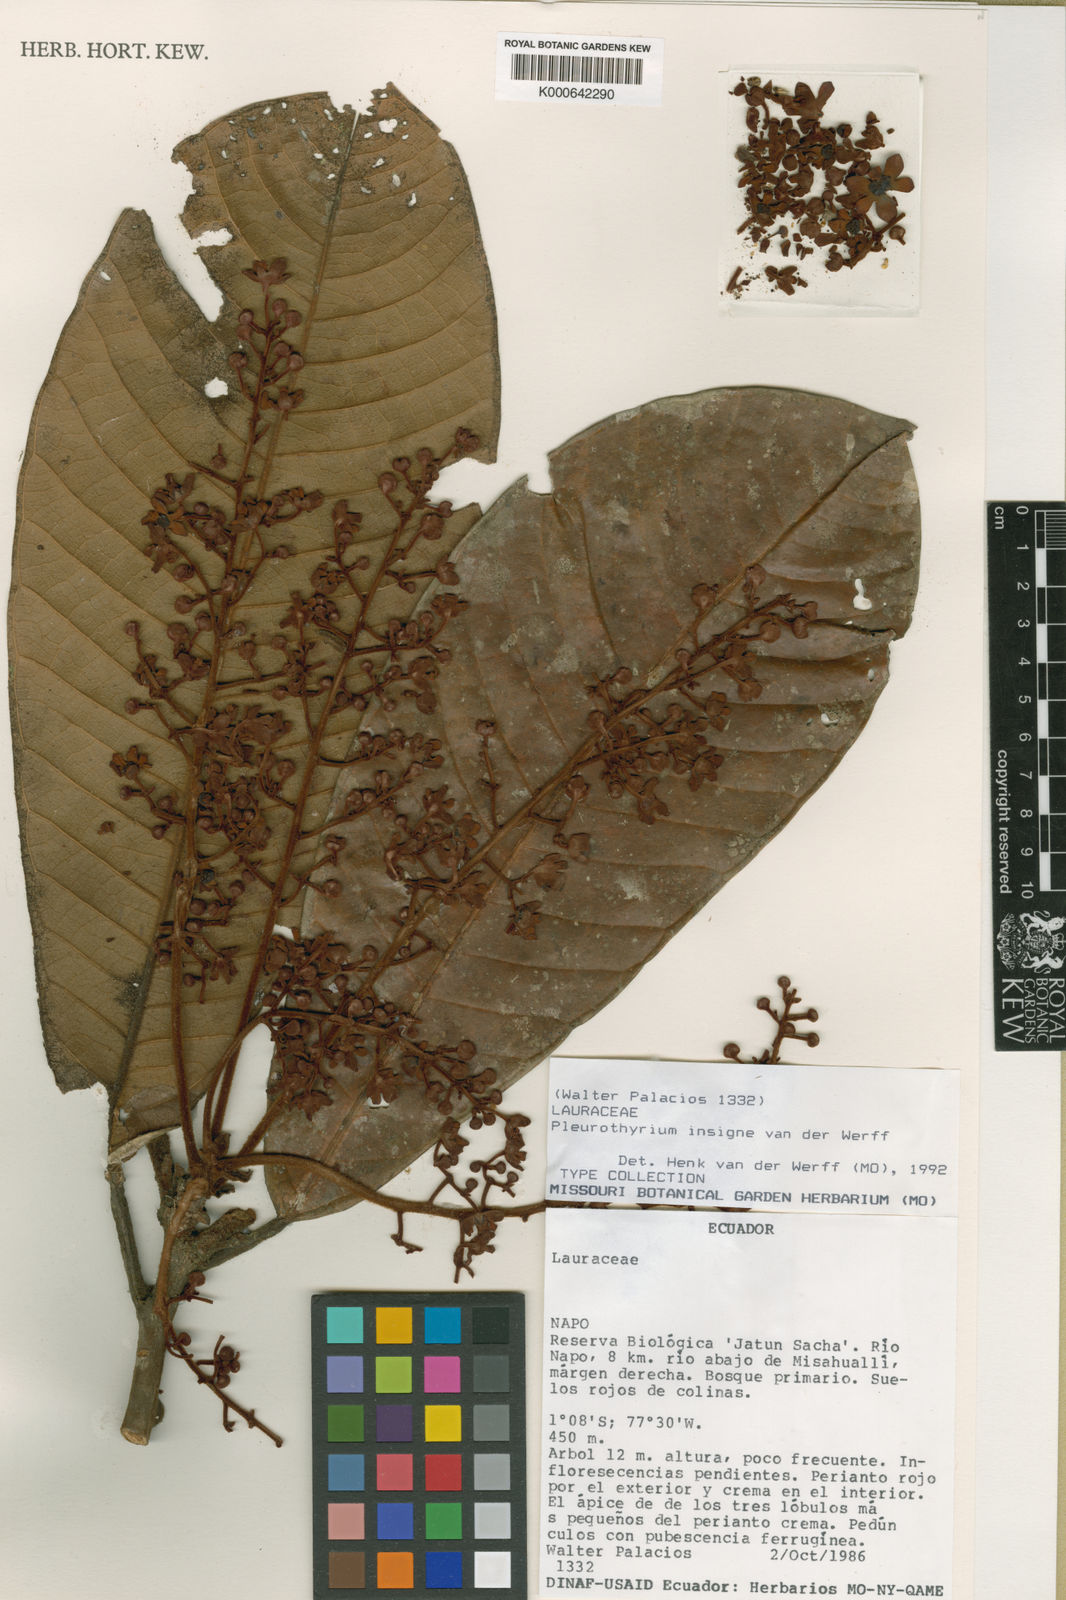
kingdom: Plantae
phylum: Tracheophyta
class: Magnoliopsida
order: Laurales
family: Lauraceae
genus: Pleurothyrium
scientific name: Pleurothyrium insigne
